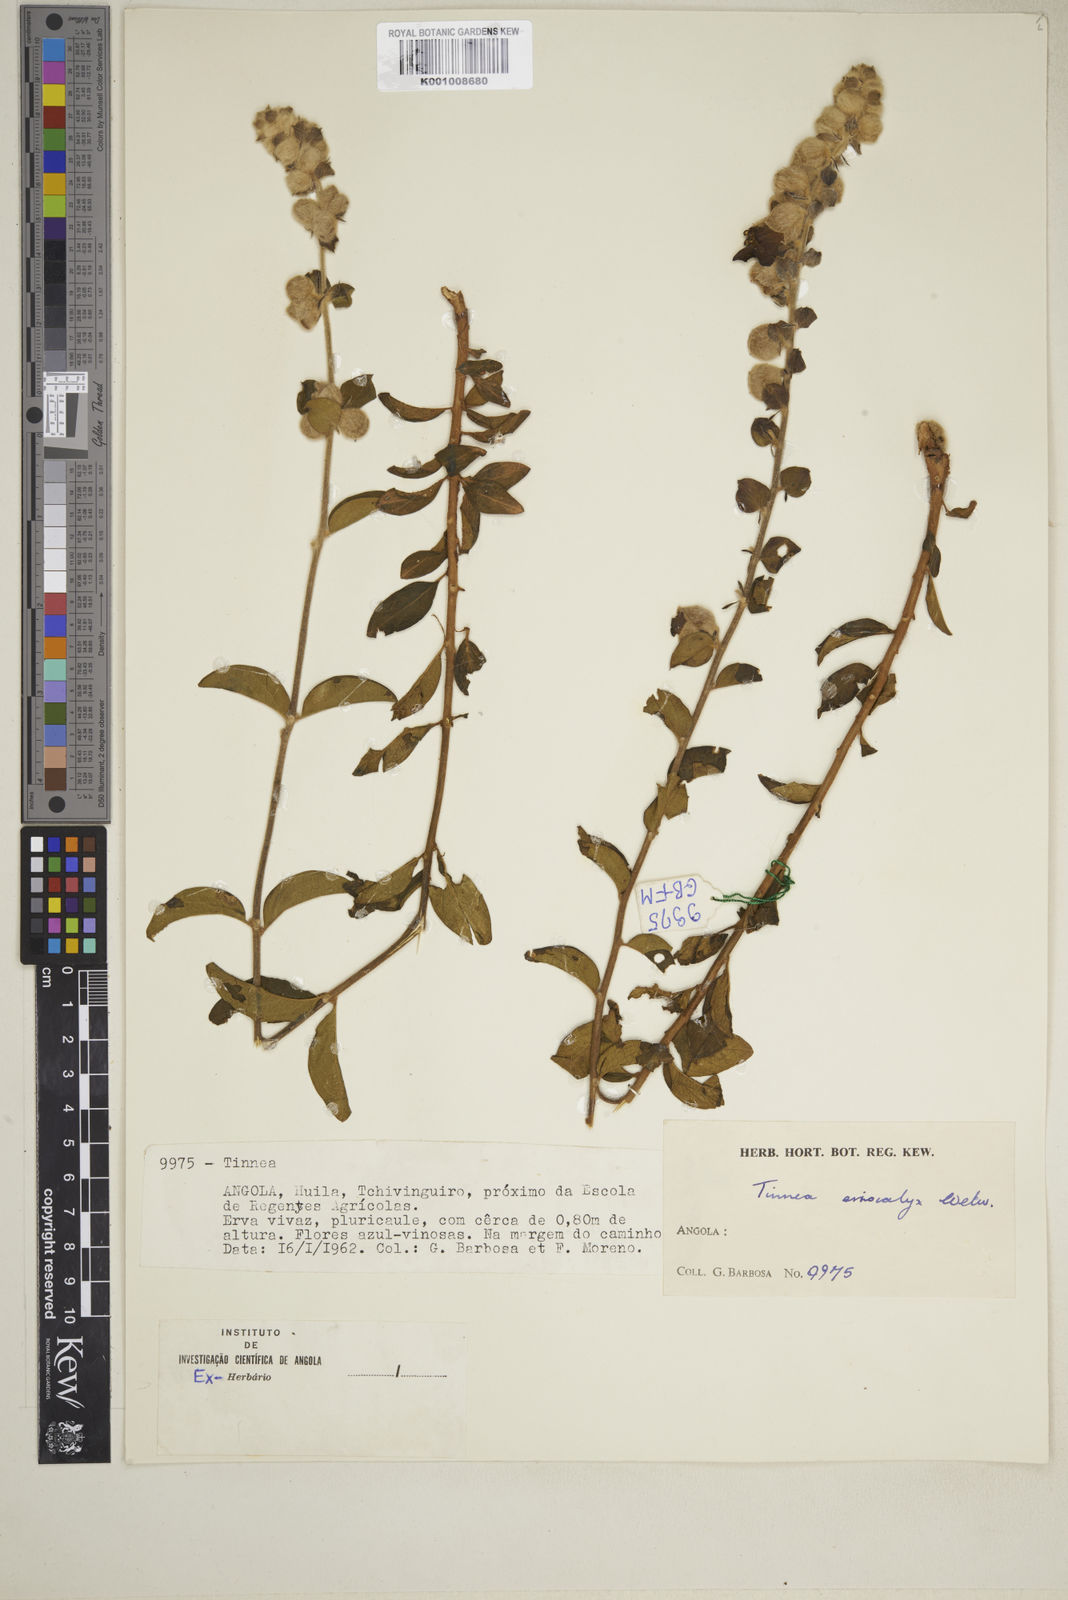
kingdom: Plantae
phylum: Tracheophyta
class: Magnoliopsida
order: Lamiales
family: Lamiaceae
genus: Tinnea
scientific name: Tinnea eriocalyx
